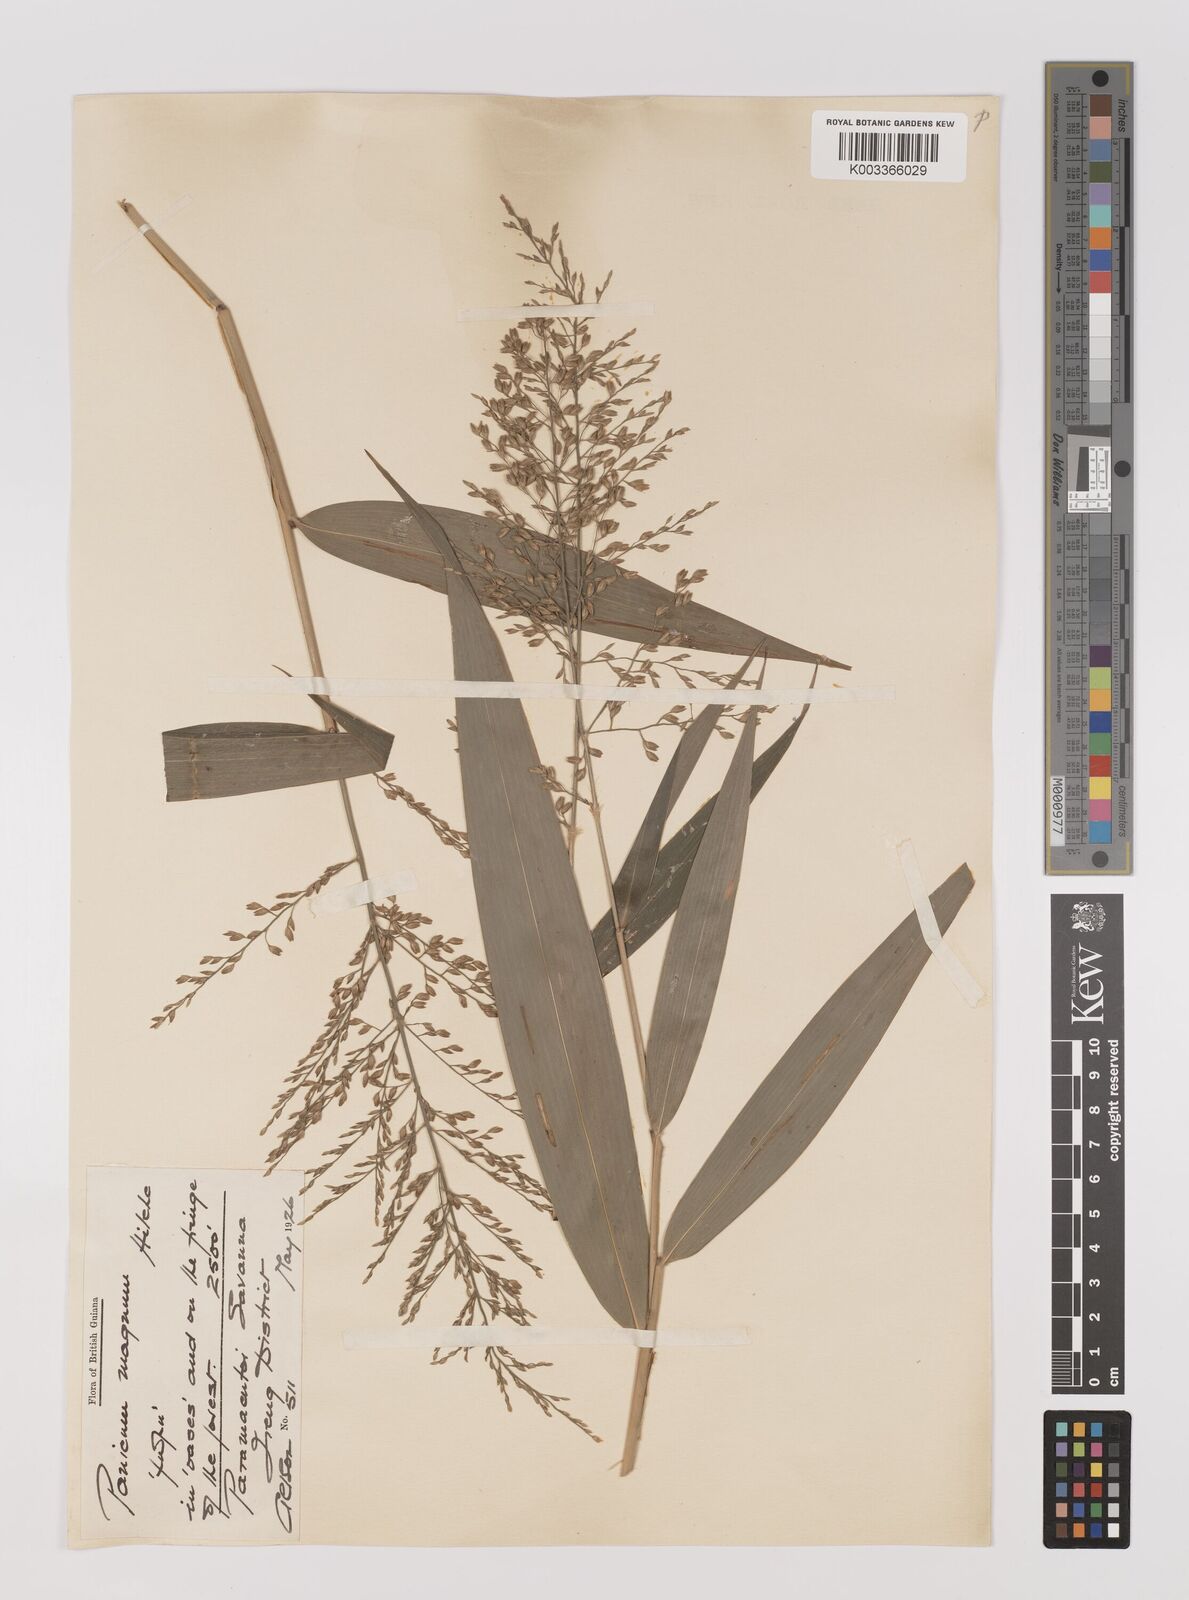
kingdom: Plantae
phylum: Tracheophyta
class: Liliopsida
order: Poales
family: Poaceae
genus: Ichnanthus
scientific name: Ichnanthus breviscrobs
